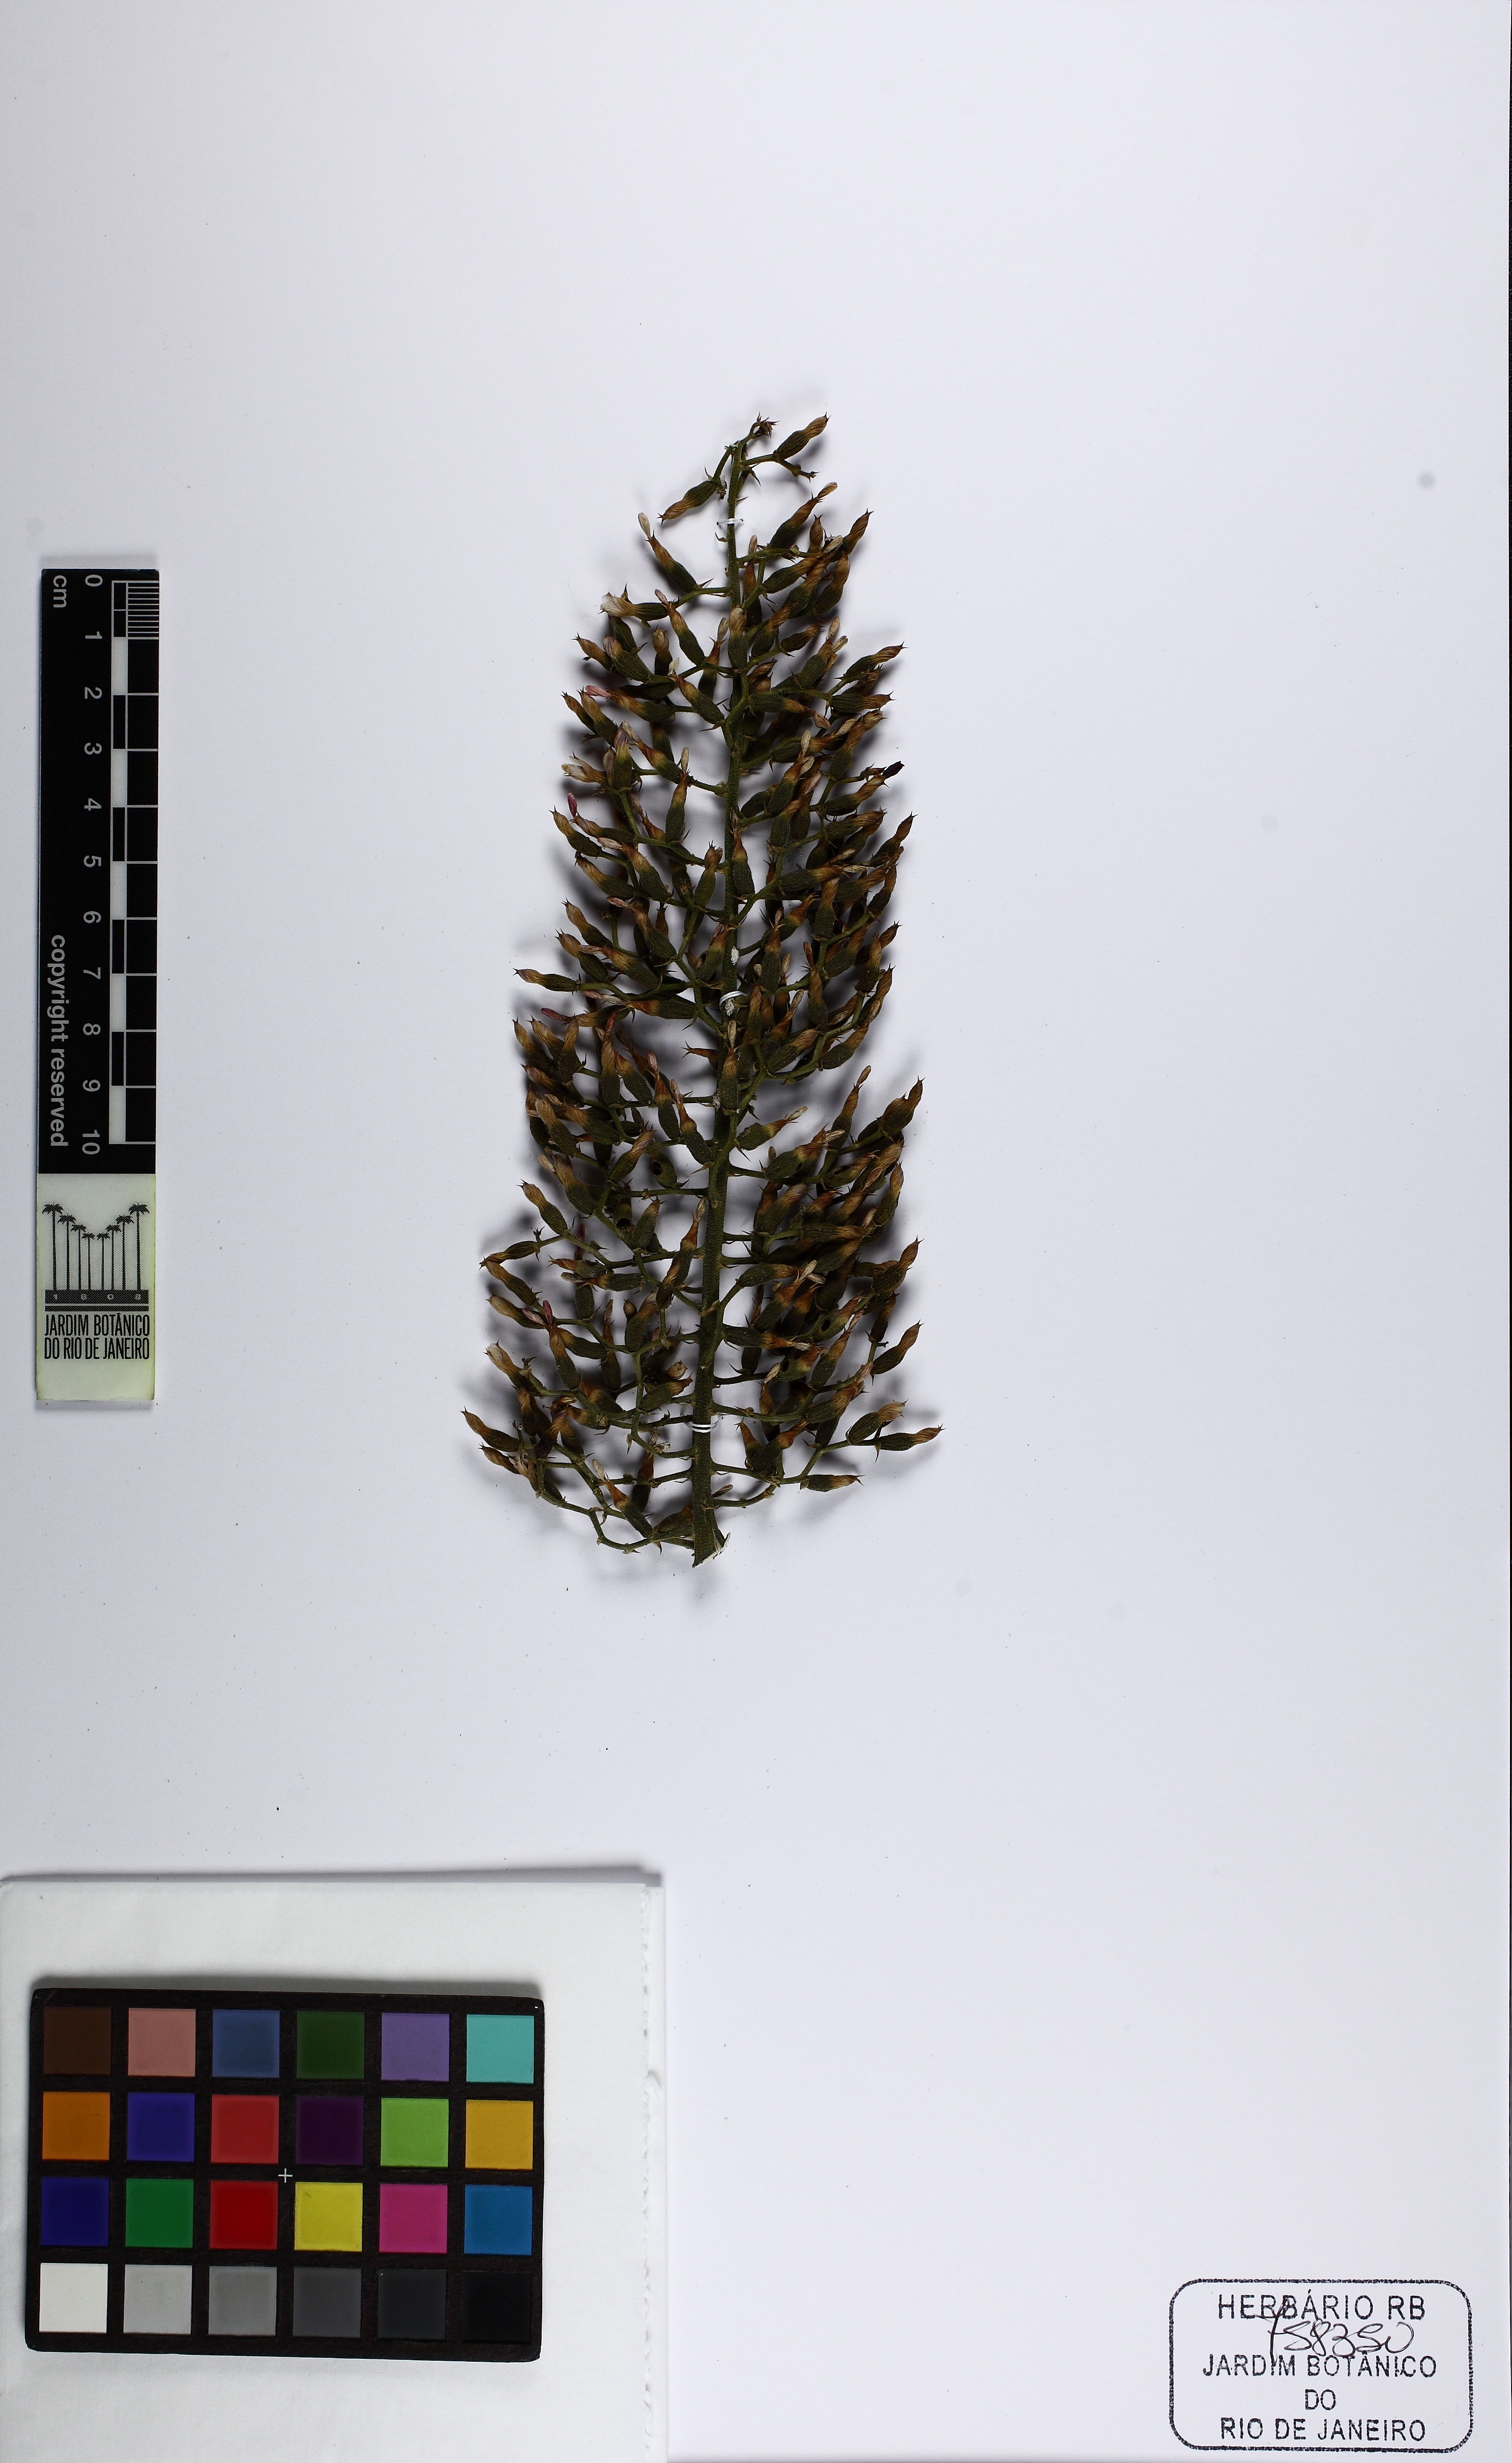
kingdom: Plantae
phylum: Tracheophyta
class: Liliopsida
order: Poales
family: Bromeliaceae
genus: Aechmea
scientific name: Aechmea castelnavii
